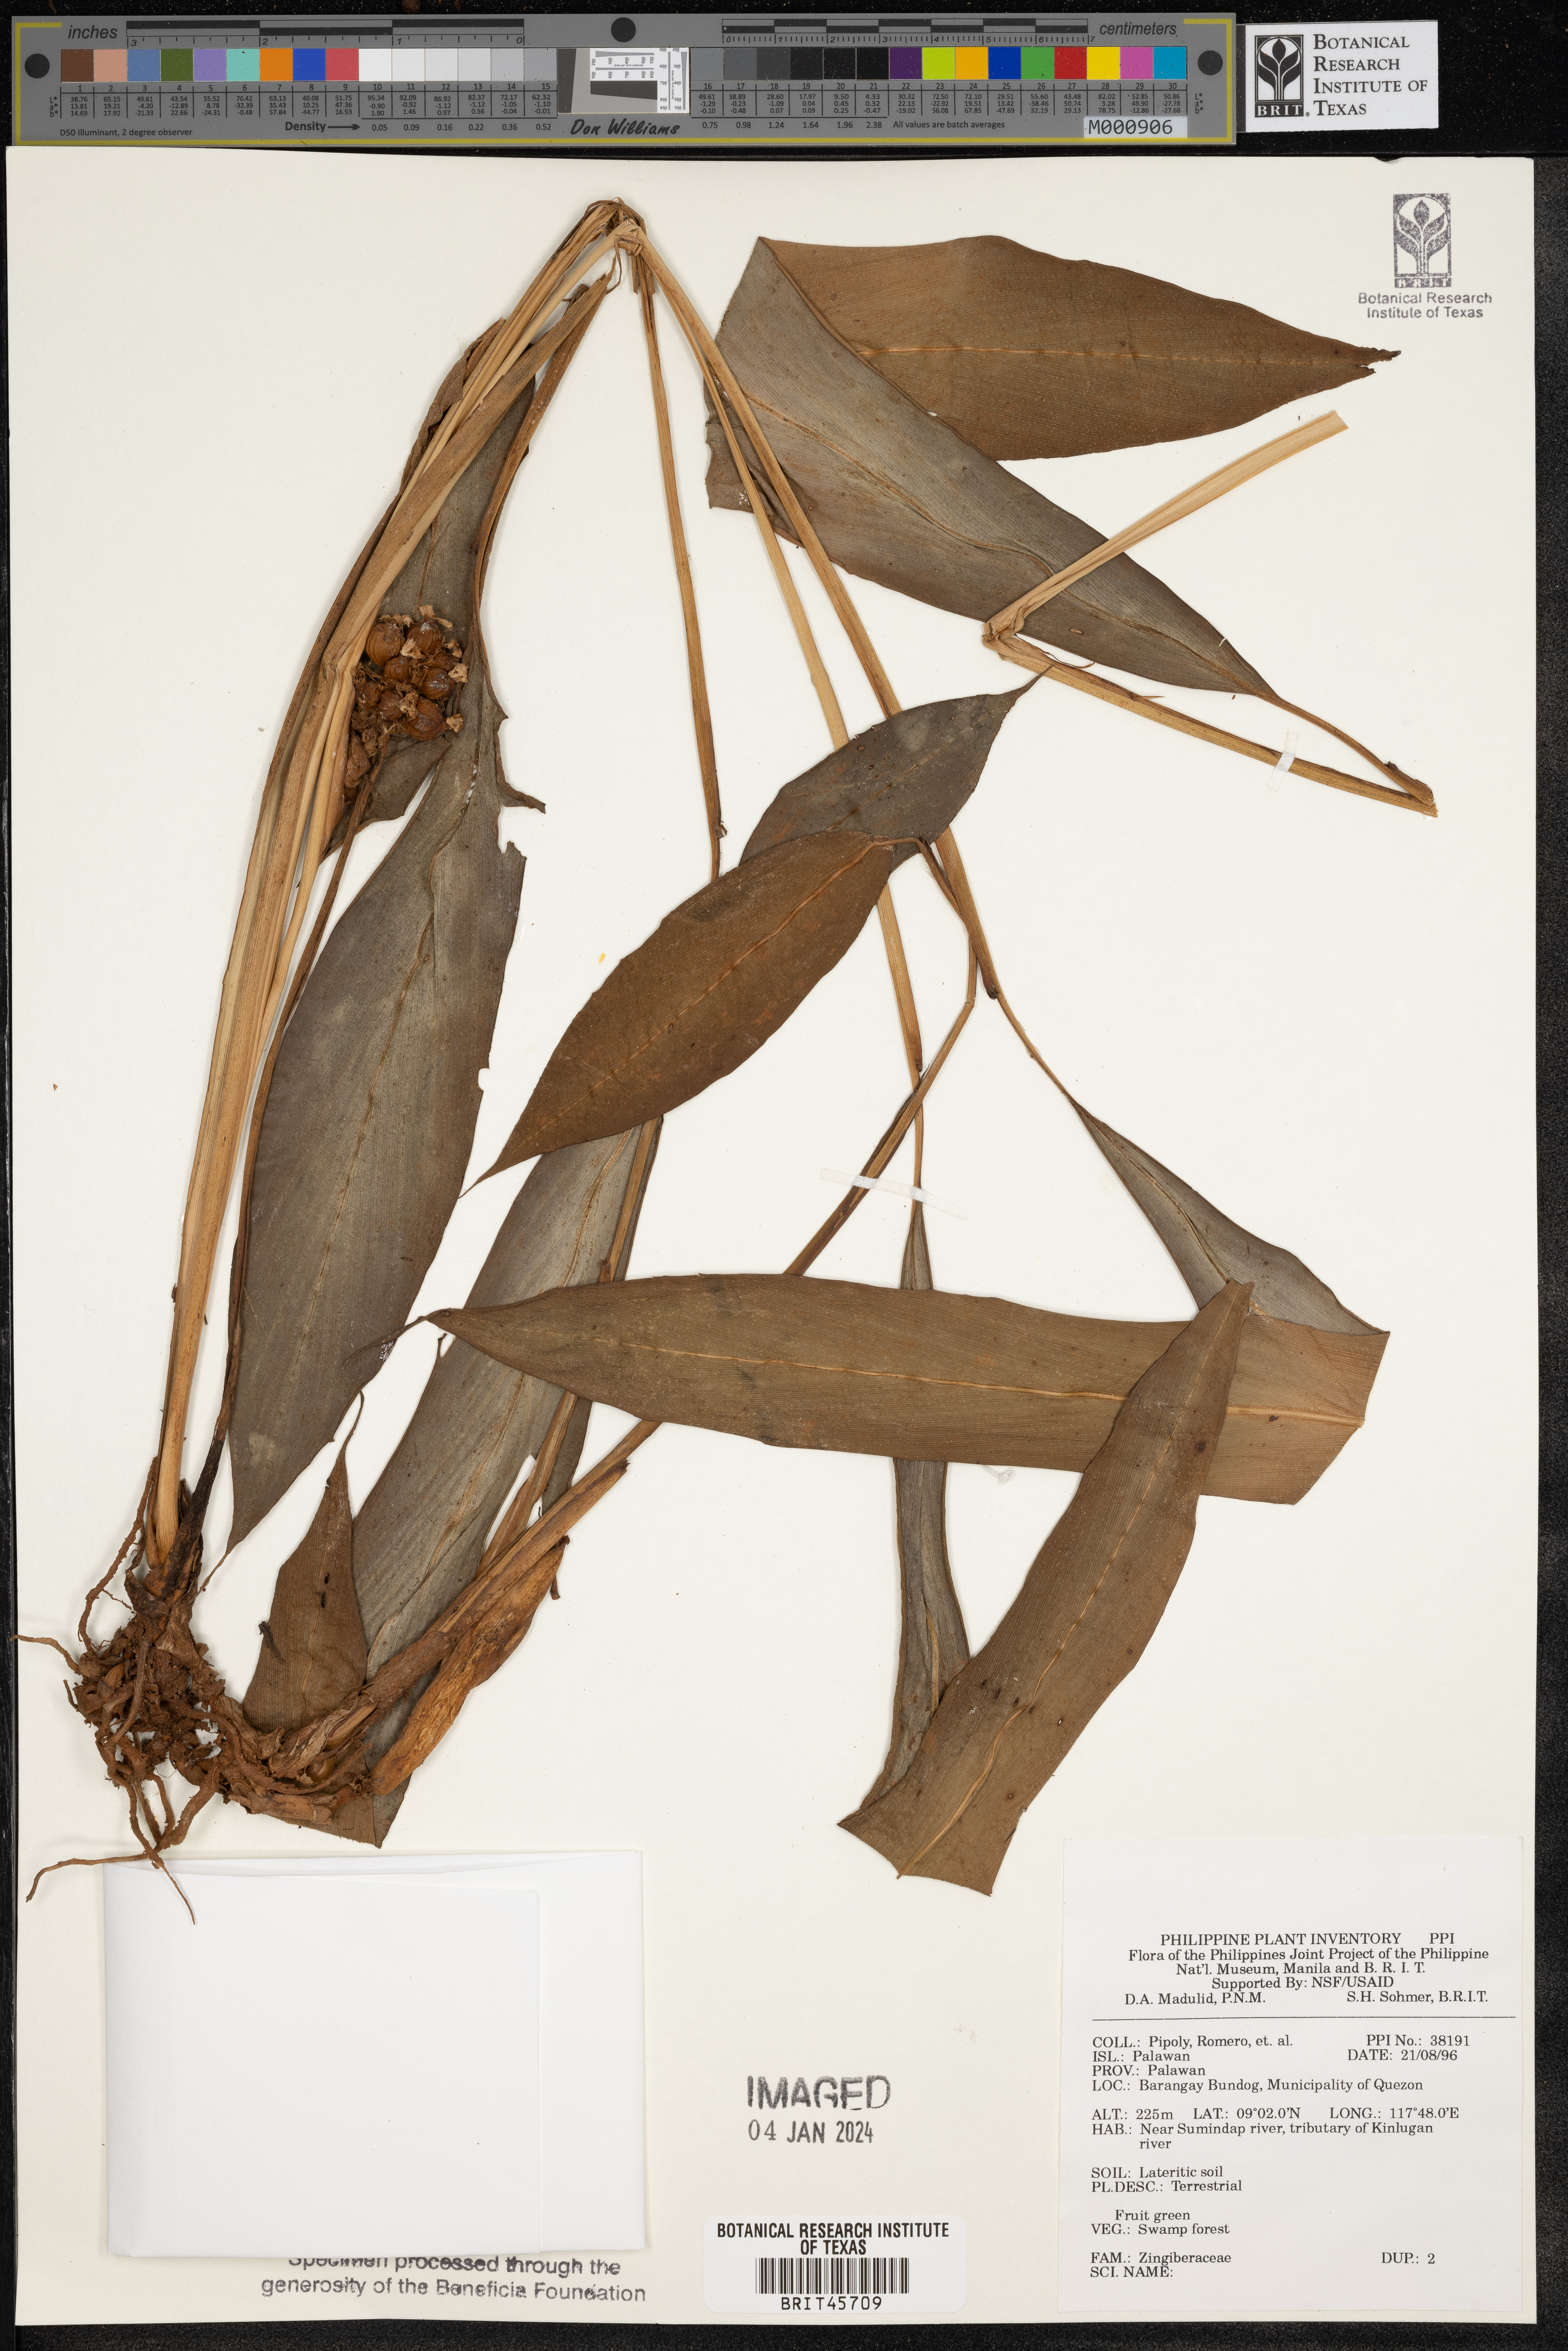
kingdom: Plantae
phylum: Tracheophyta
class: Liliopsida
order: Zingiberales
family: Zingiberaceae
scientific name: Zingiberaceae
